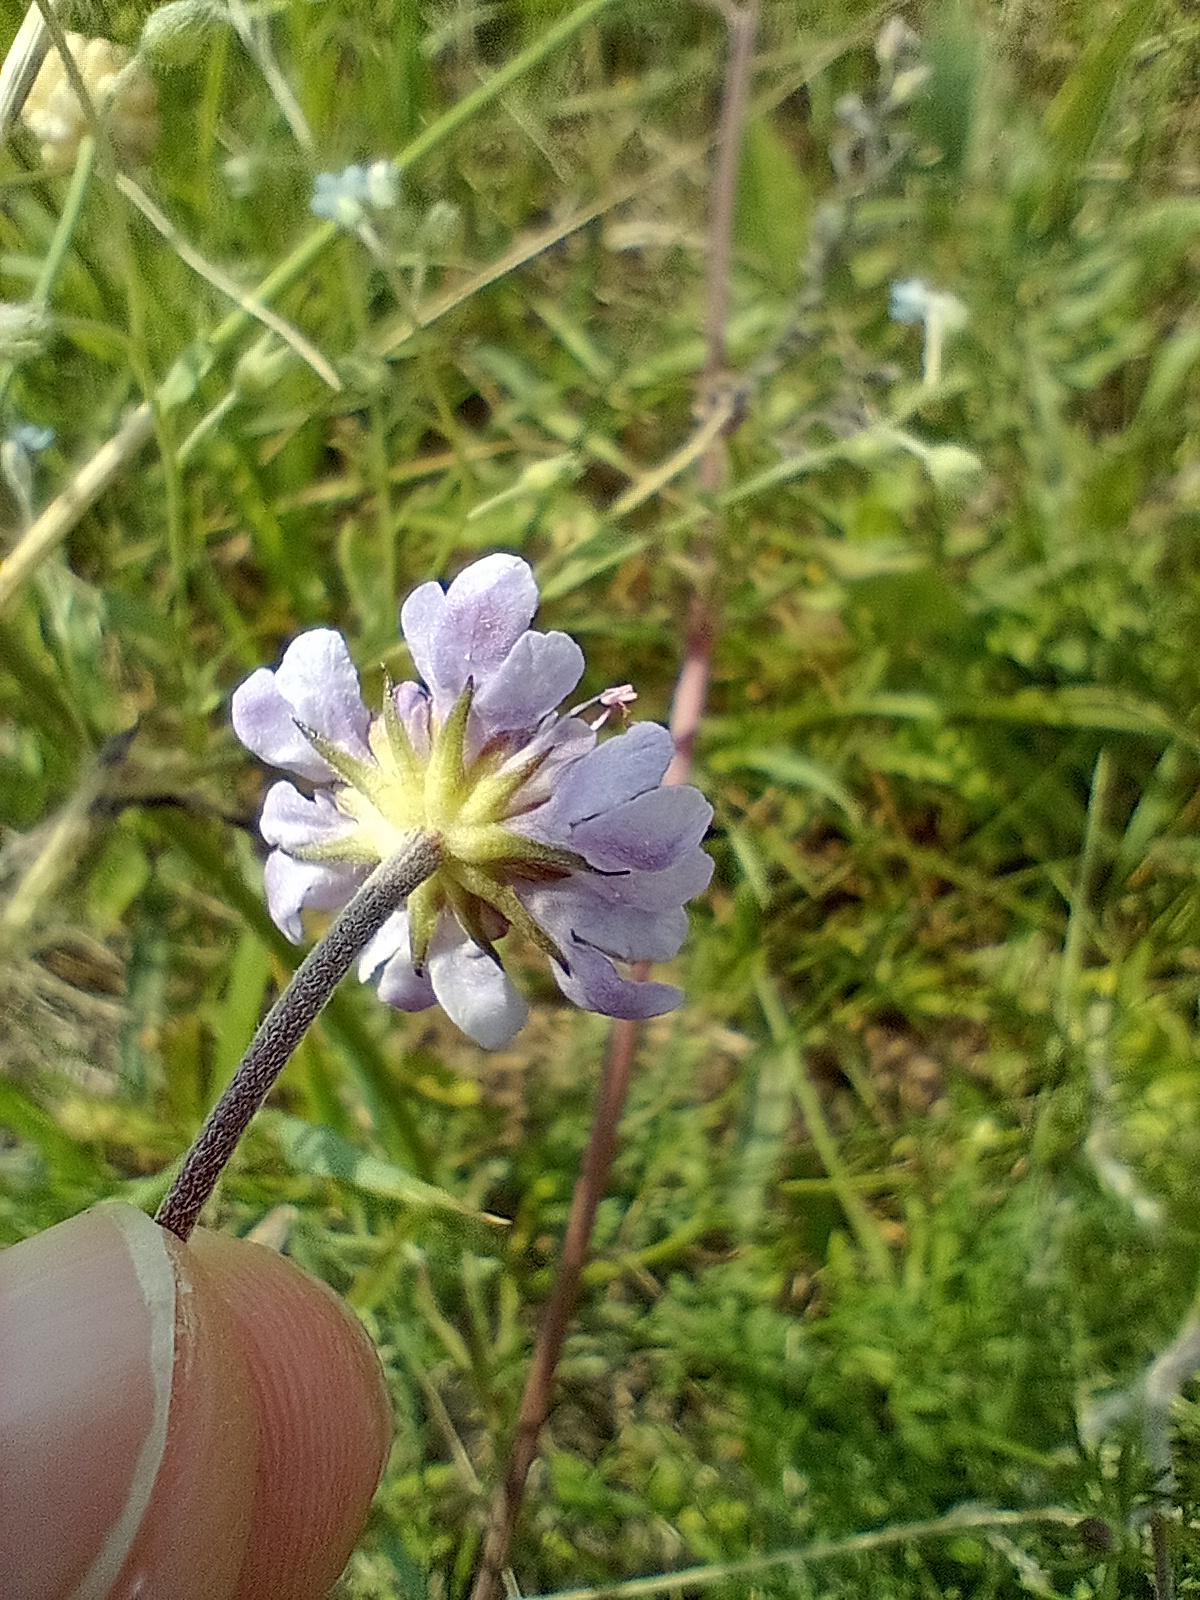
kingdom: Plantae
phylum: Tracheophyta
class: Magnoliopsida
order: Dipsacales
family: Caprifoliaceae
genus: Scabiosa
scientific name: Scabiosa canescens
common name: Vellugtende skabiose
